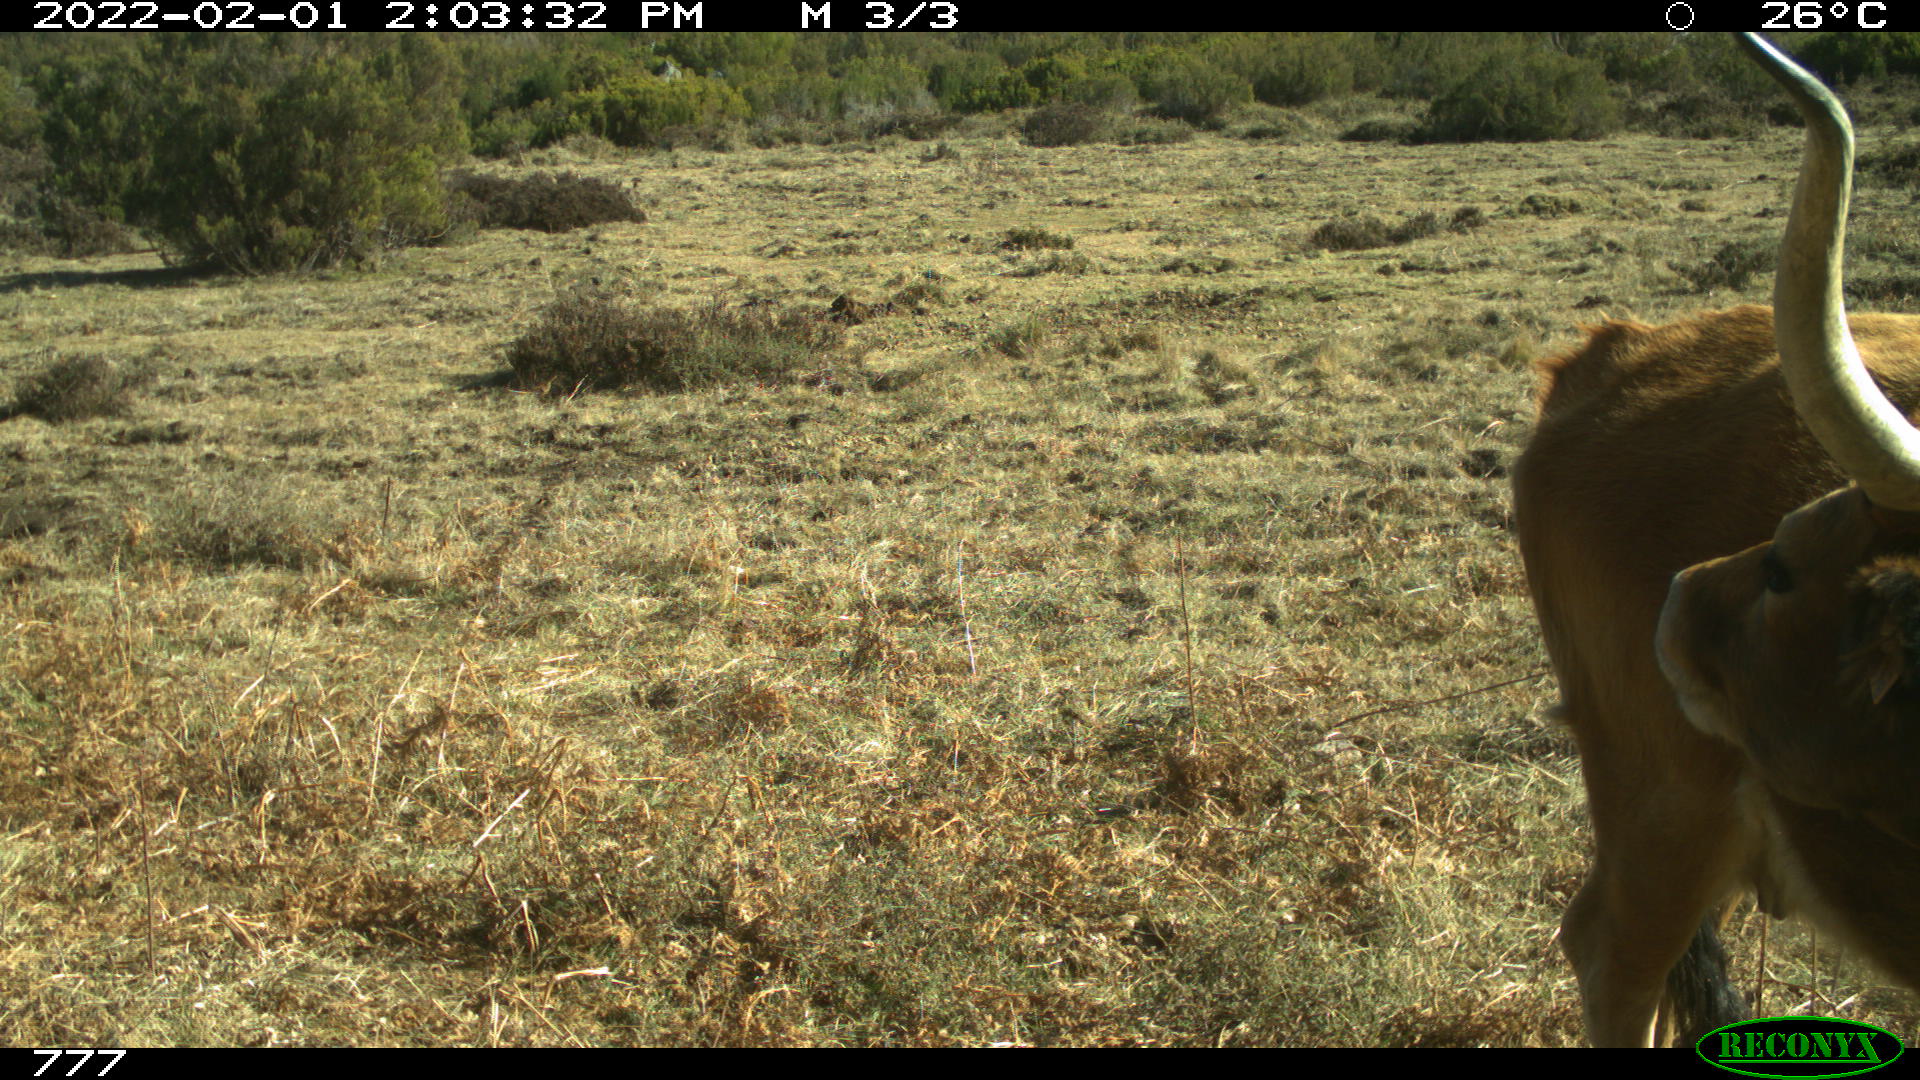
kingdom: Animalia
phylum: Chordata
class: Mammalia
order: Artiodactyla
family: Bovidae
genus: Bos
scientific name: Bos taurus
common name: Domesticated cattle
